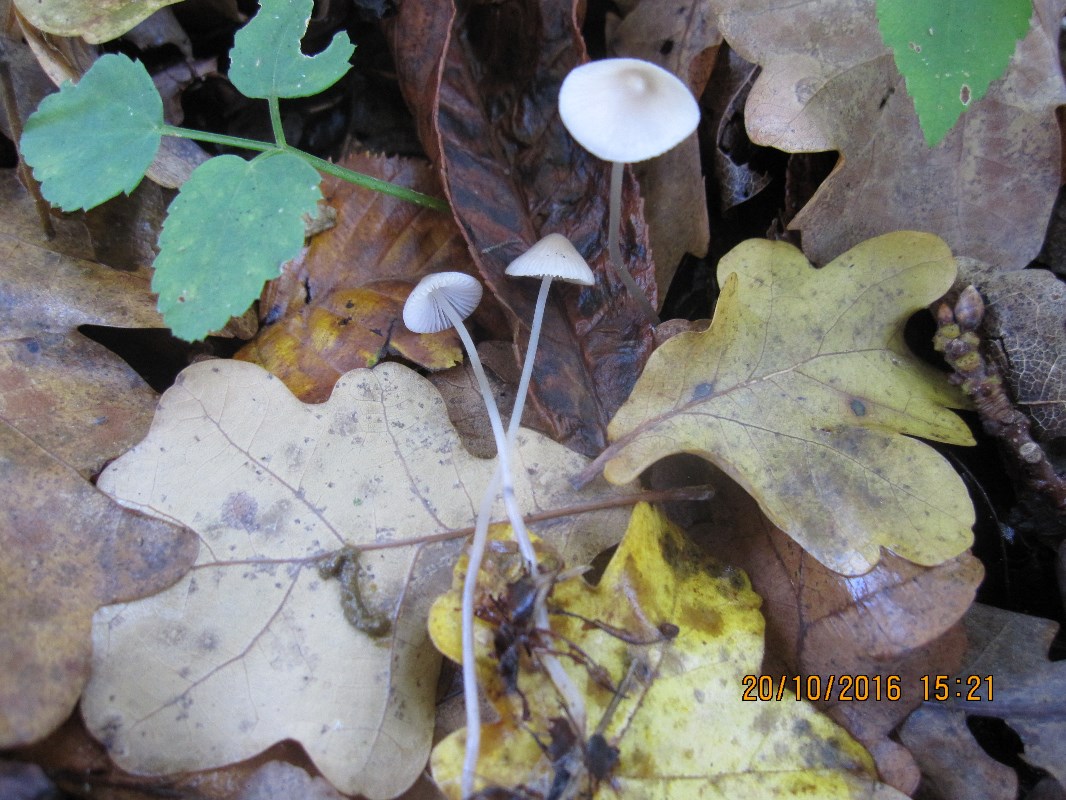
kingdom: Fungi
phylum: Basidiomycota
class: Agaricomycetes
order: Agaricales
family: Mycenaceae
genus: Mycena
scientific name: Mycena vitilis
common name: blankstokket huesvamp
